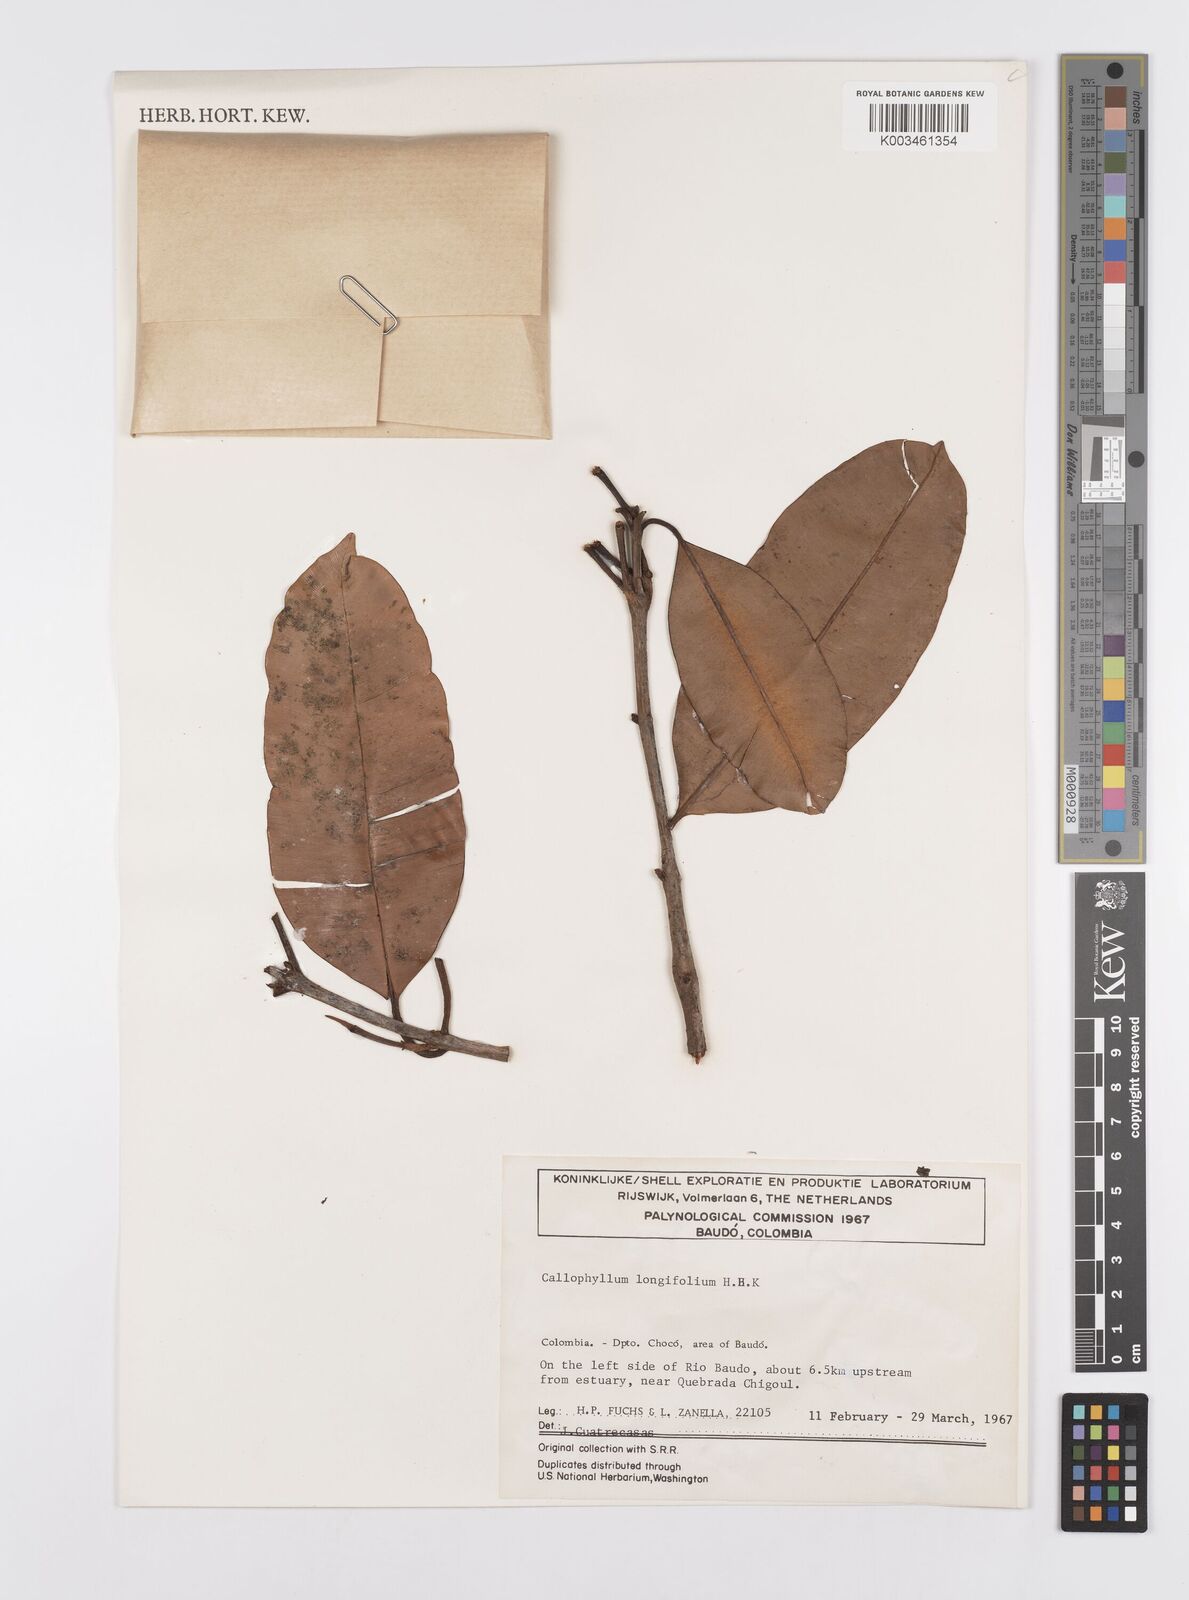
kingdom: Plantae
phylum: Tracheophyta
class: Magnoliopsida
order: Malpighiales
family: Calophyllaceae
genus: Calophyllum
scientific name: Calophyllum longifolium
